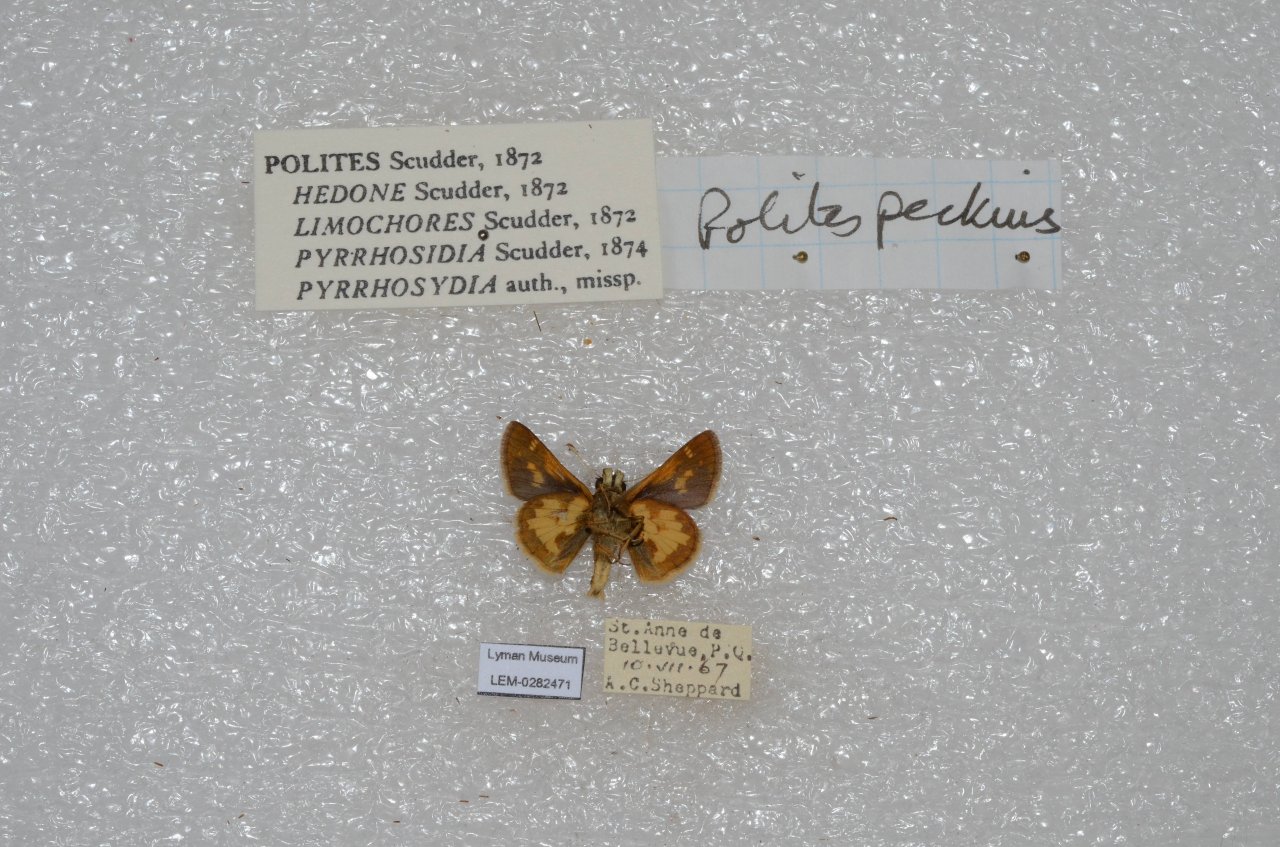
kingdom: Animalia
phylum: Arthropoda
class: Insecta
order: Lepidoptera
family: Hesperiidae
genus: Polites
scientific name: Polites coras
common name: Peck's Skipper
